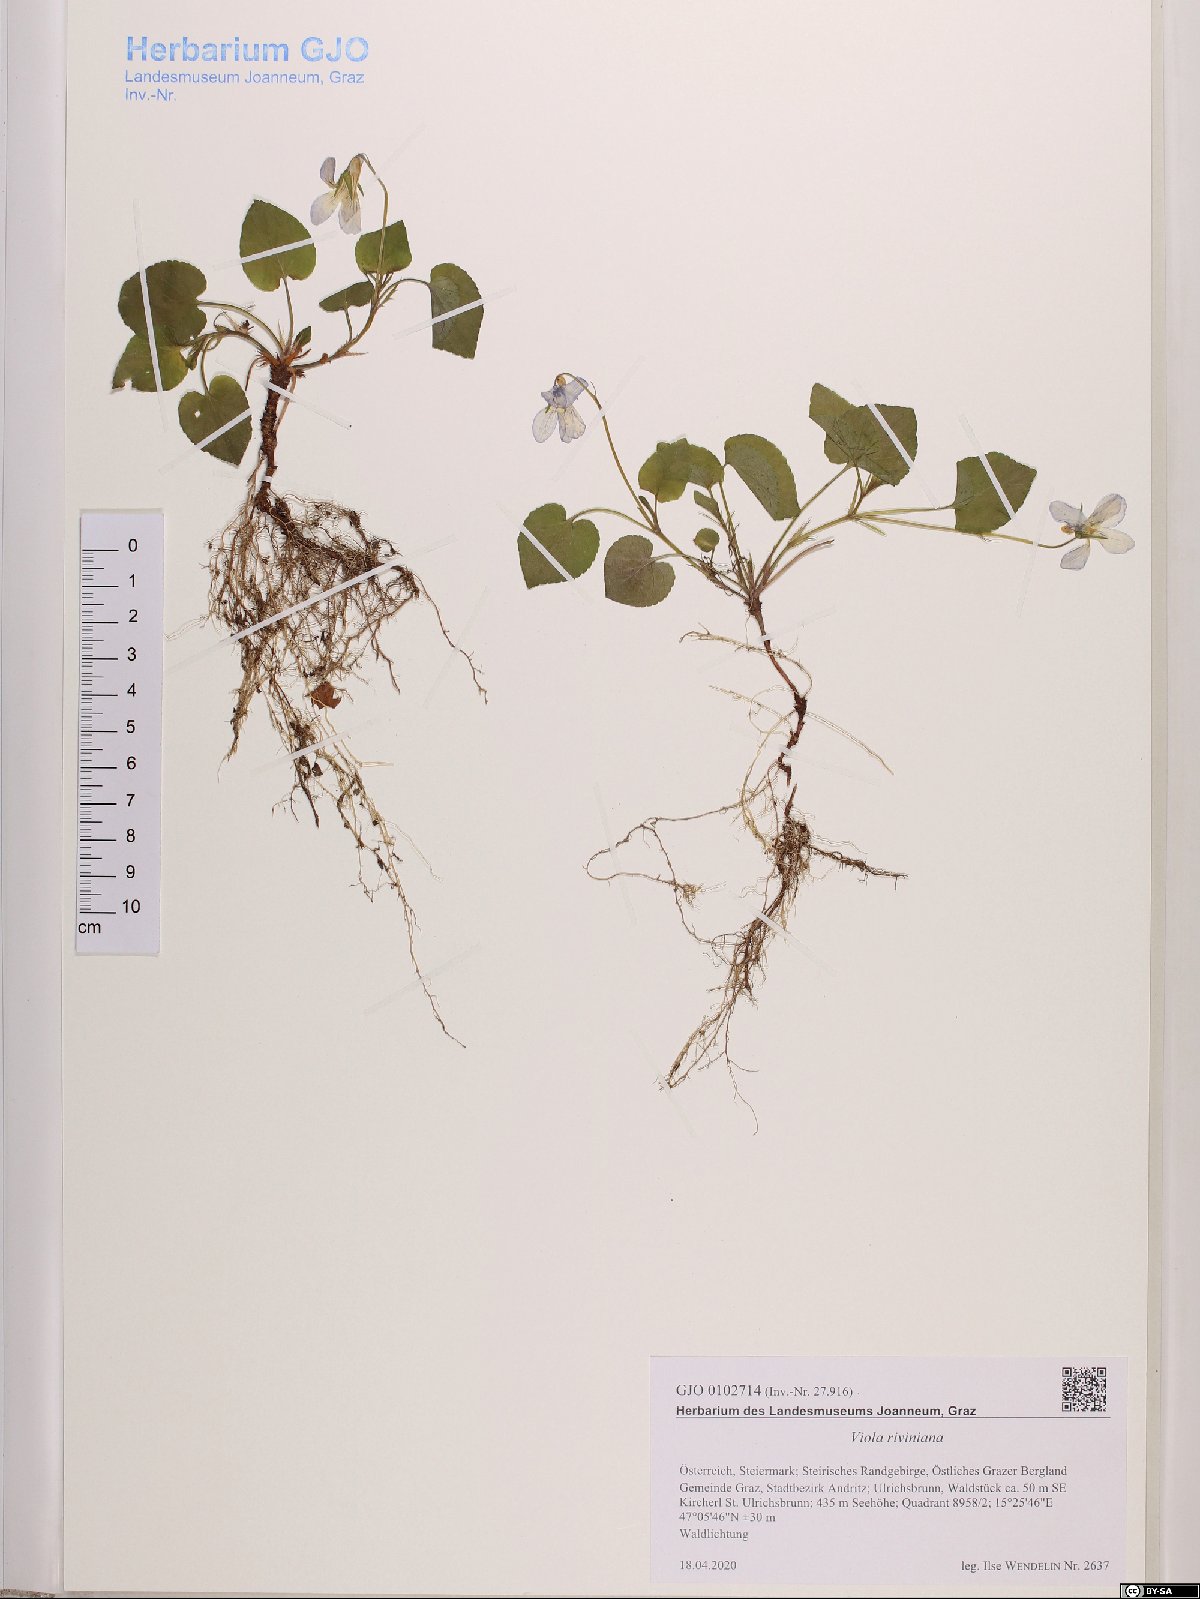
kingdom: Plantae
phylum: Tracheophyta
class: Magnoliopsida
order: Malpighiales
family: Violaceae
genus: Viola
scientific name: Viola riviniana
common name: Common dog-violet
